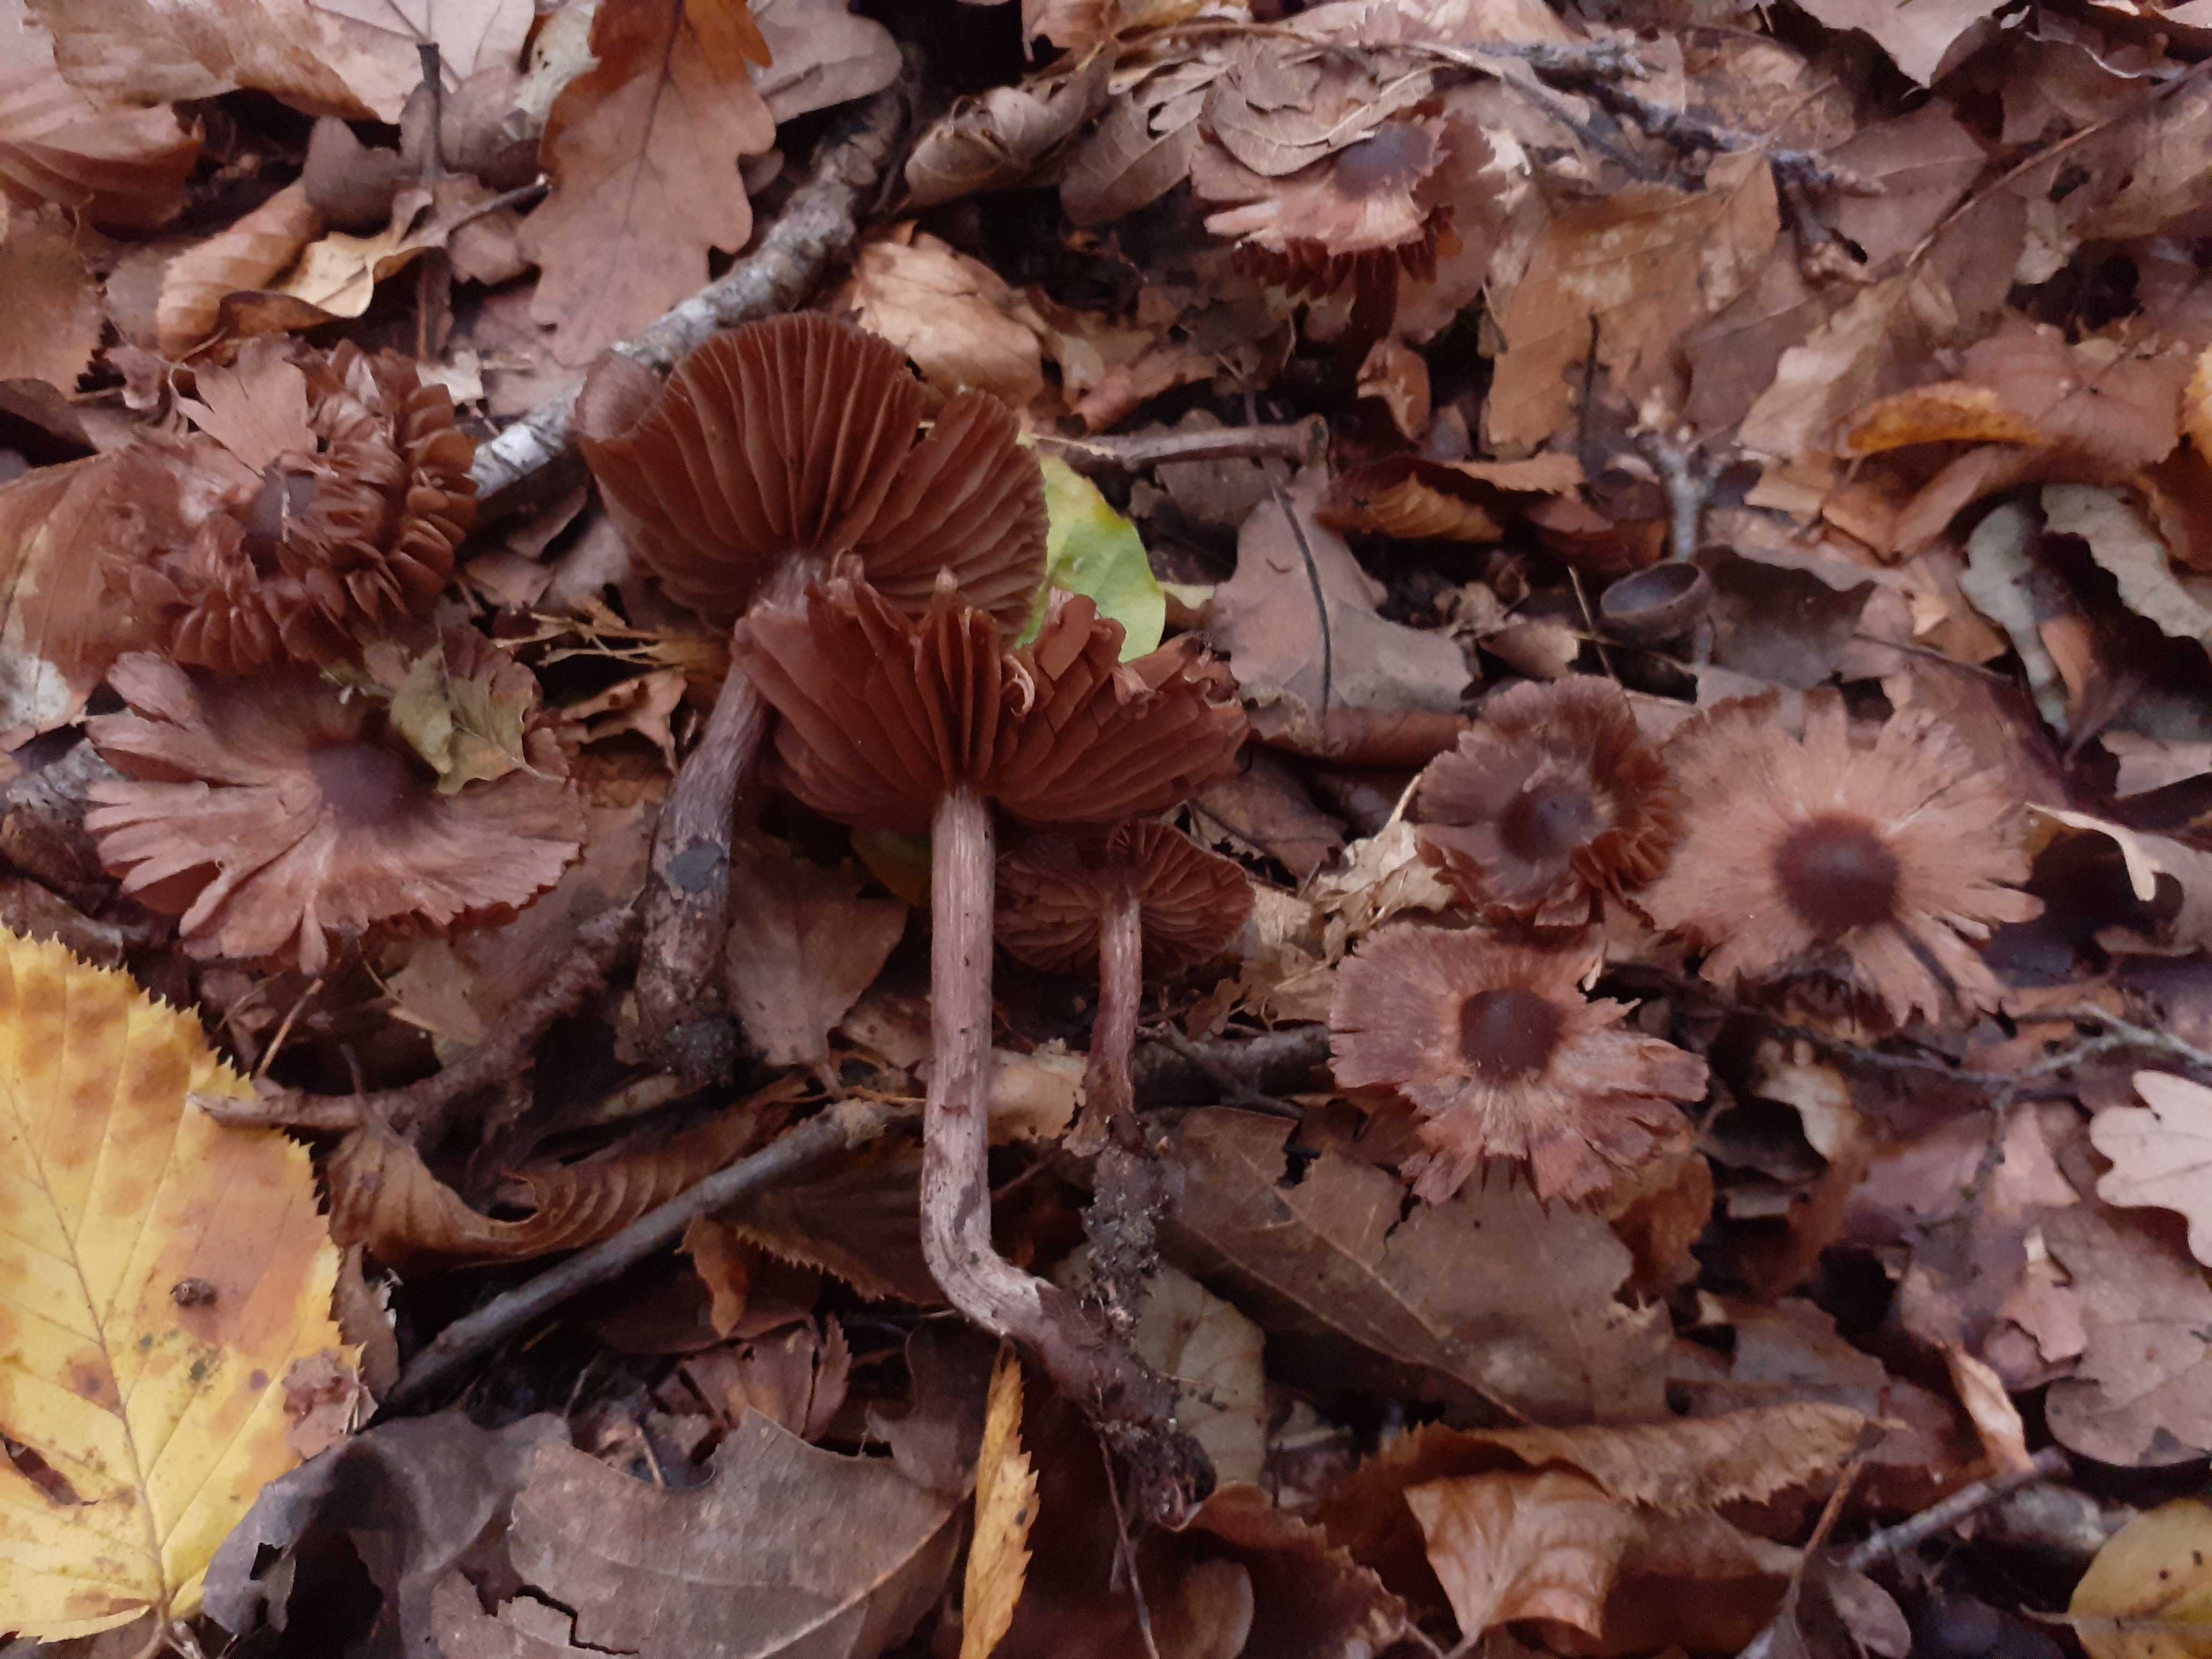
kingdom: Fungi
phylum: Basidiomycota
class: Agaricomycetes
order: Agaricales
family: Cortinariaceae
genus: Cortinarius
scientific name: Cortinarius caliginosus
